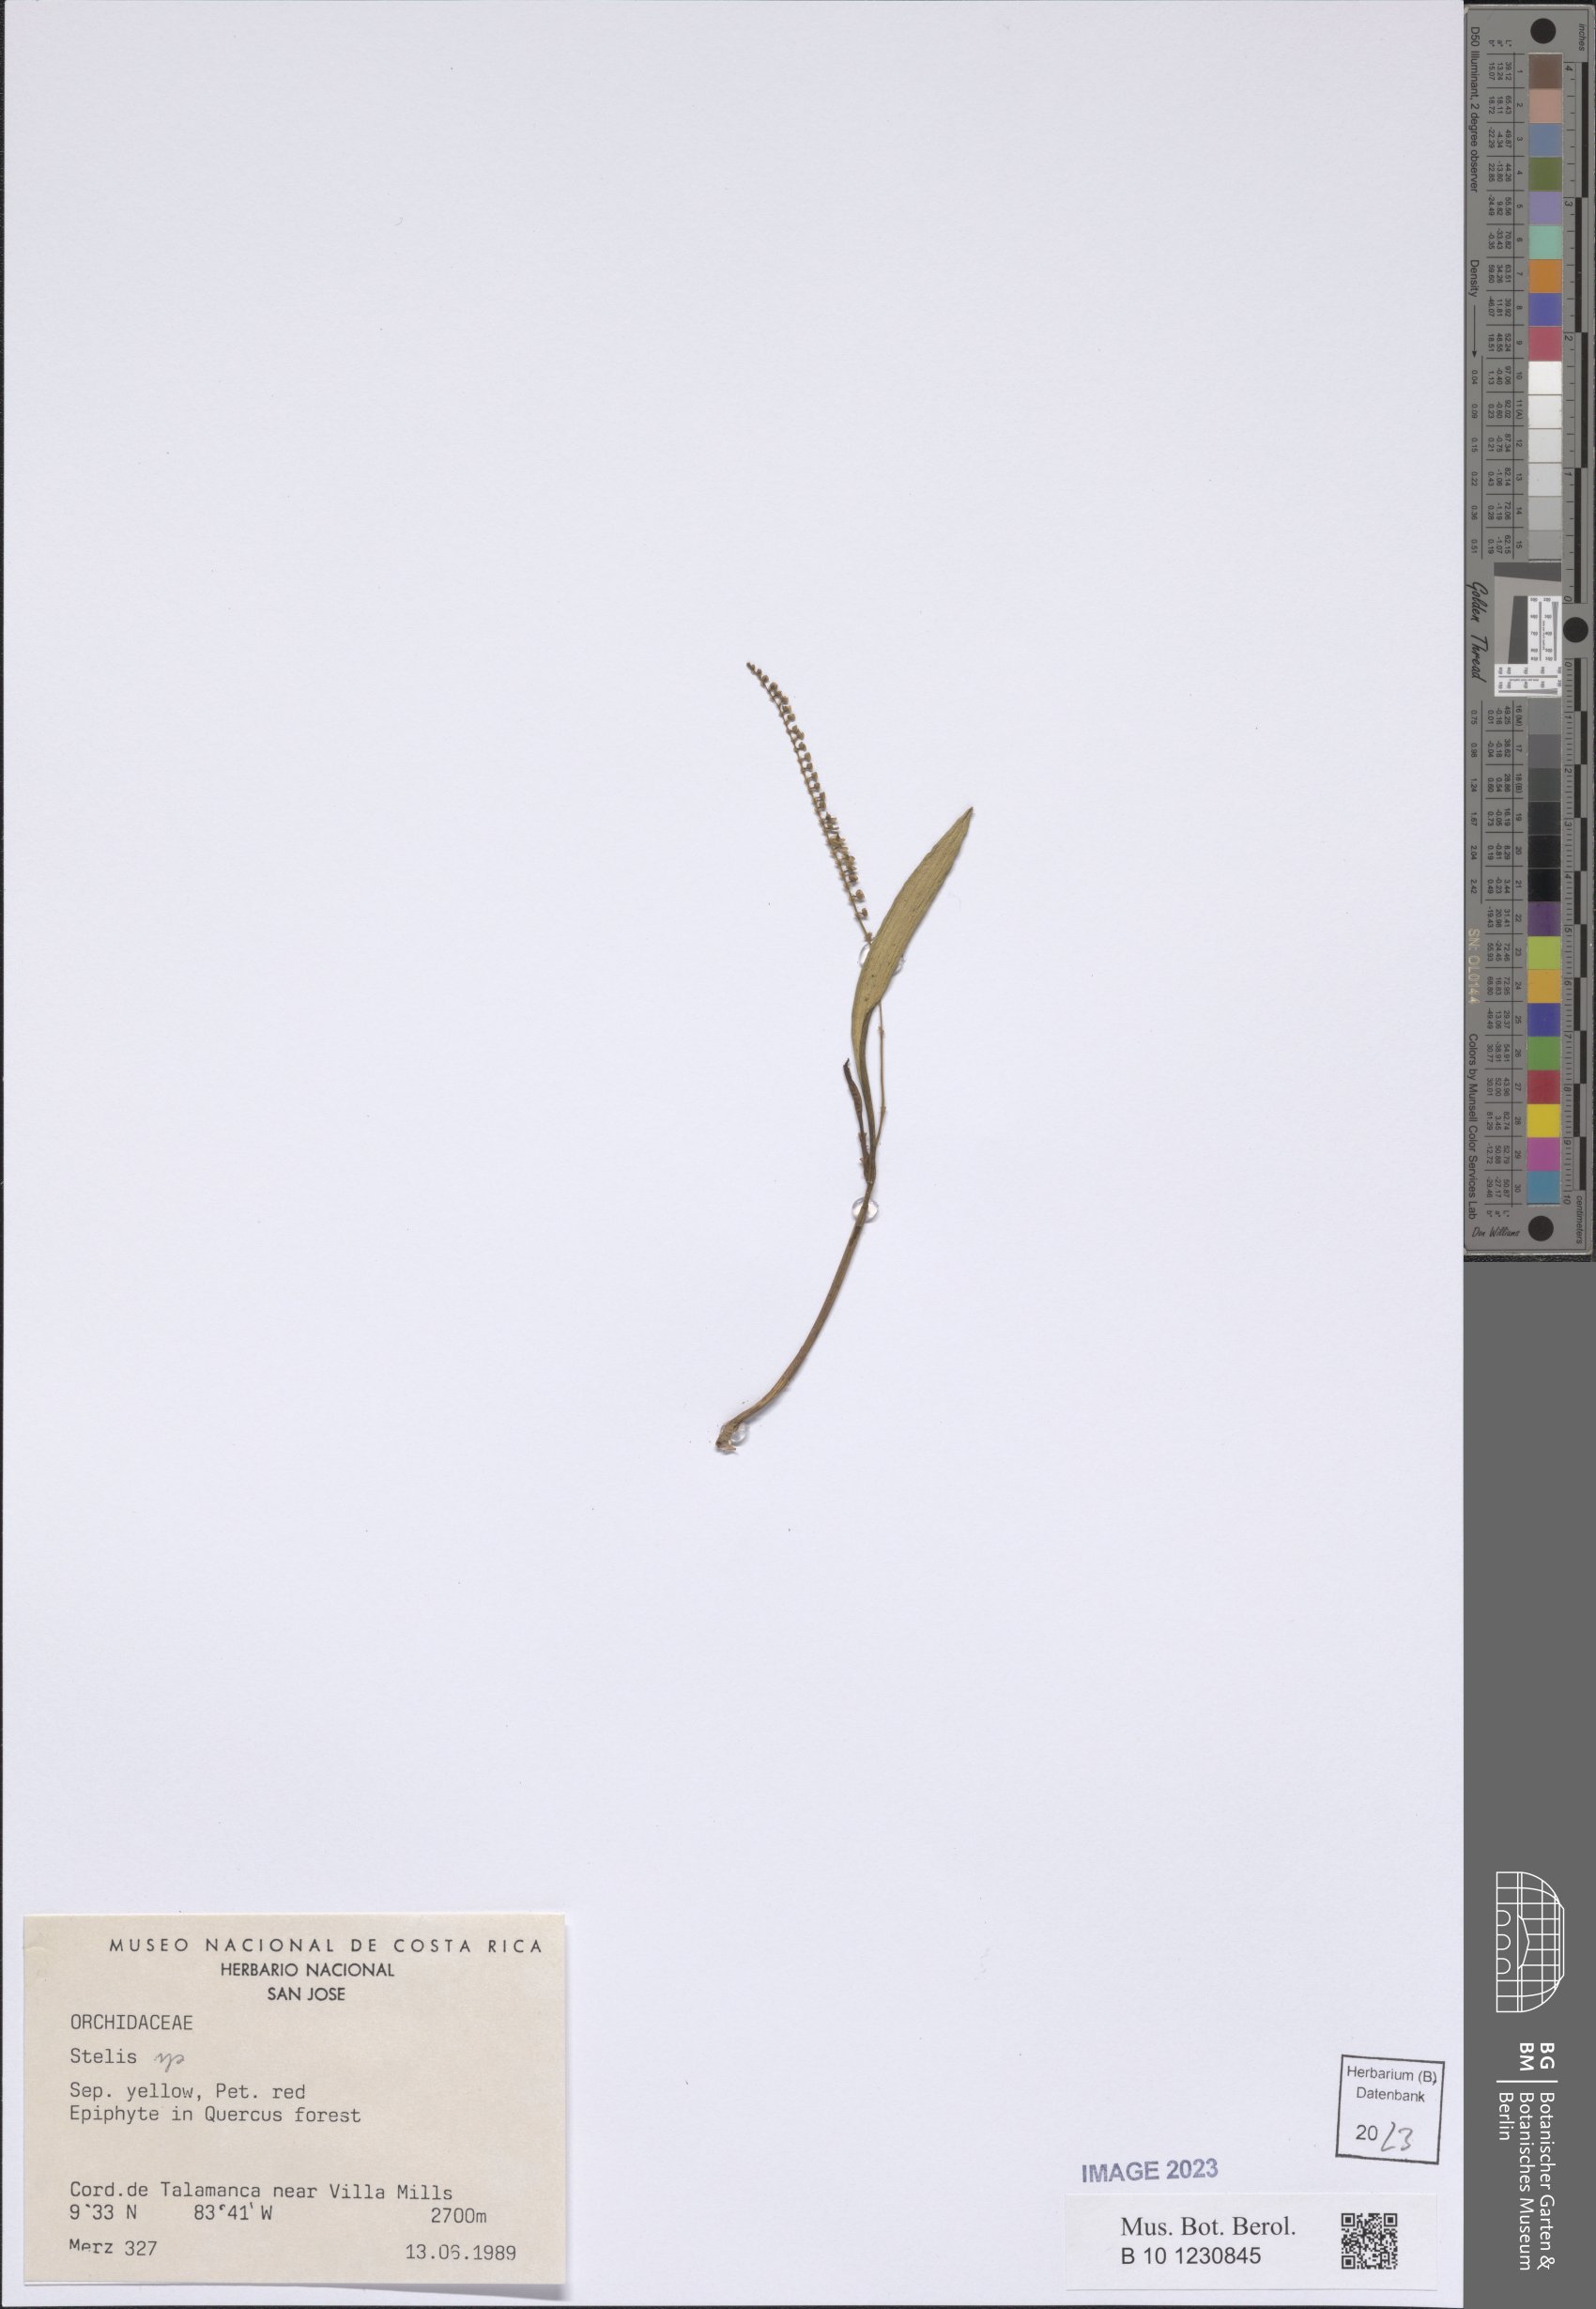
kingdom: Plantae
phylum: Tracheophyta
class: Liliopsida
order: Asparagales
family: Orchidaceae
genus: Stelis
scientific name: Stelis
